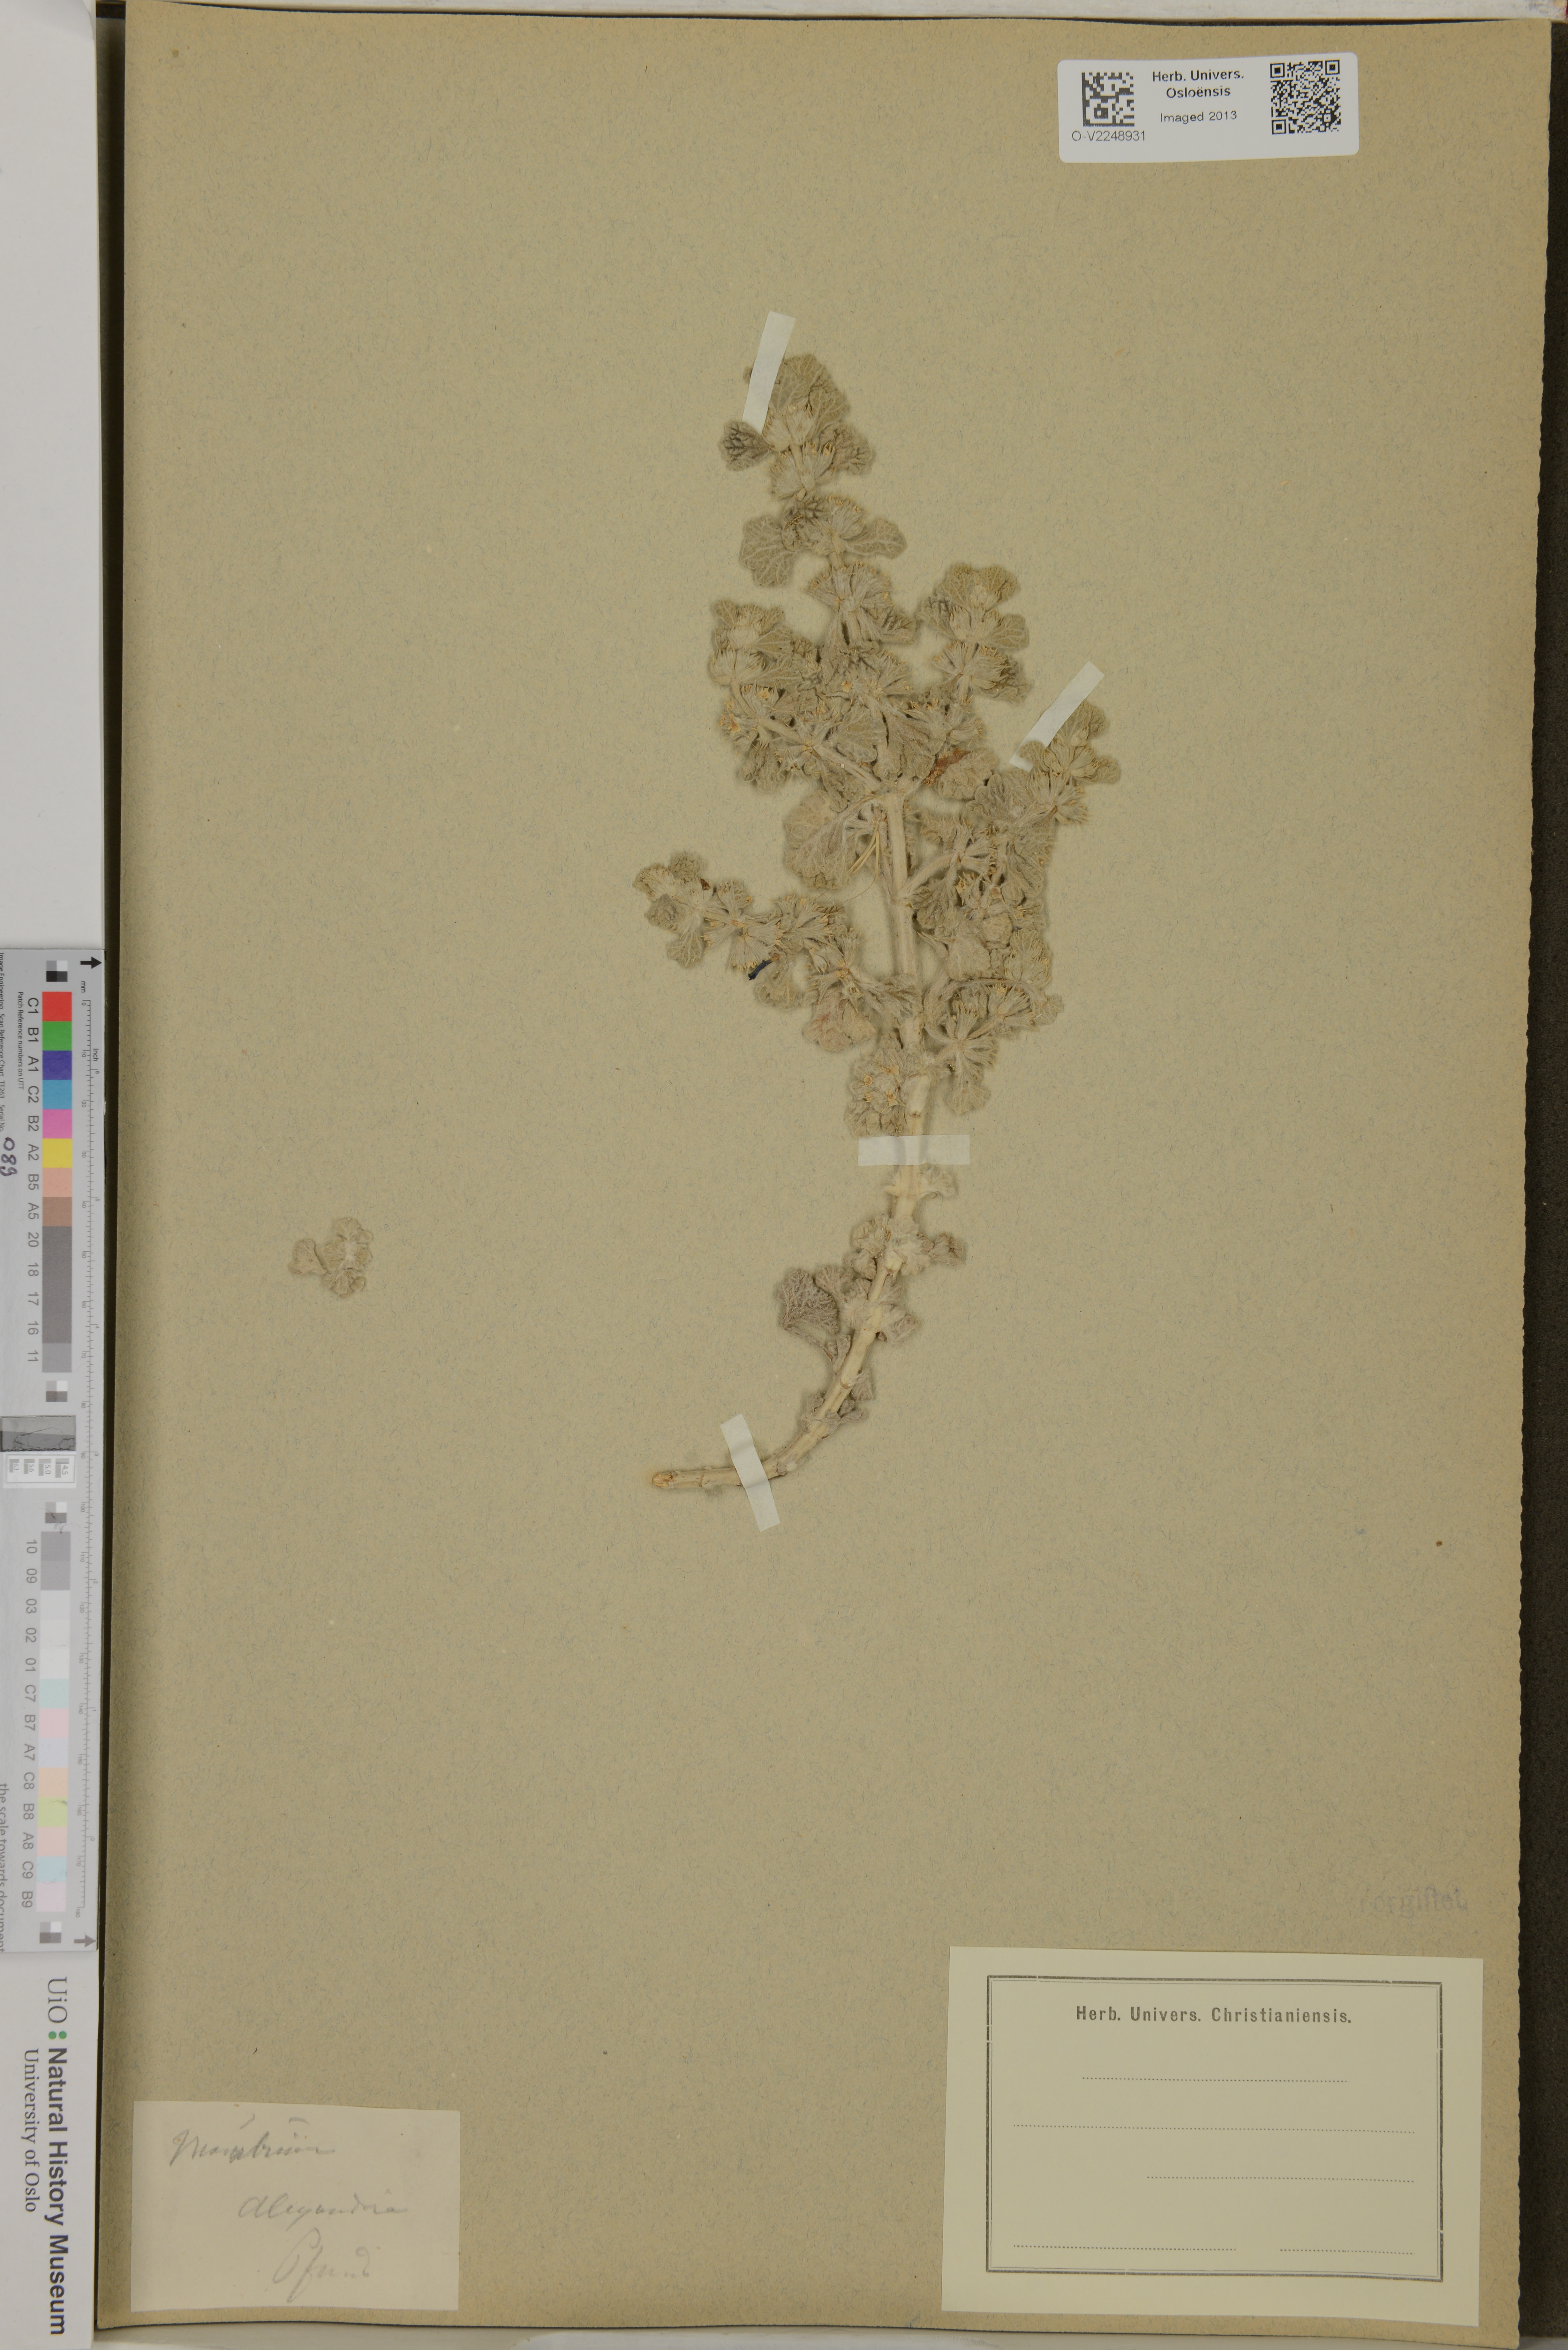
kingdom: Plantae
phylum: Tracheophyta
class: Magnoliopsida
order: Lamiales
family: Lamiaceae
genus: Marrubium
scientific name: Marrubium
